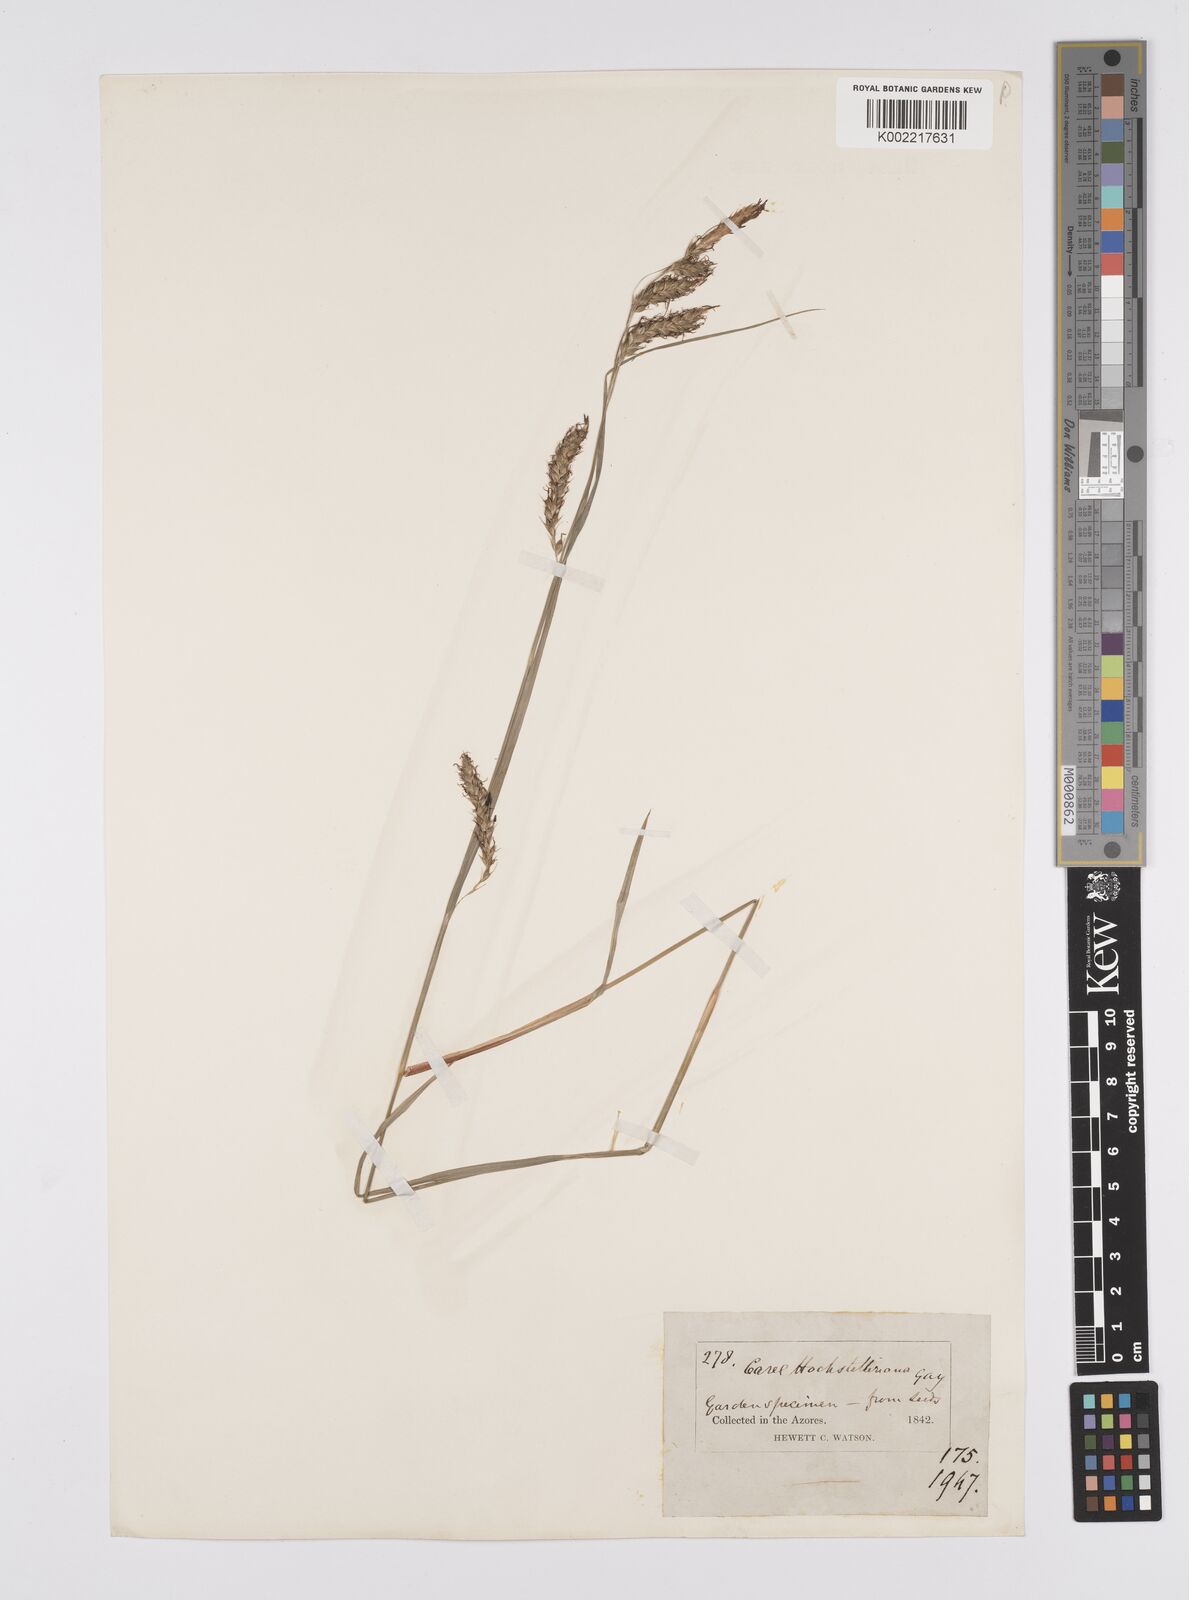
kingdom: Plantae
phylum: Tracheophyta
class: Liliopsida
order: Poales
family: Cyperaceae
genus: Carex
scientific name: Carex hochstetteriana
